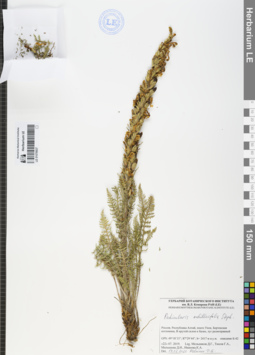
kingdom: Plantae
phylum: Tracheophyta
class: Magnoliopsida
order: Lamiales
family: Orobanchaceae
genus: Pedicularis
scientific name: Pedicularis achilleifolia
